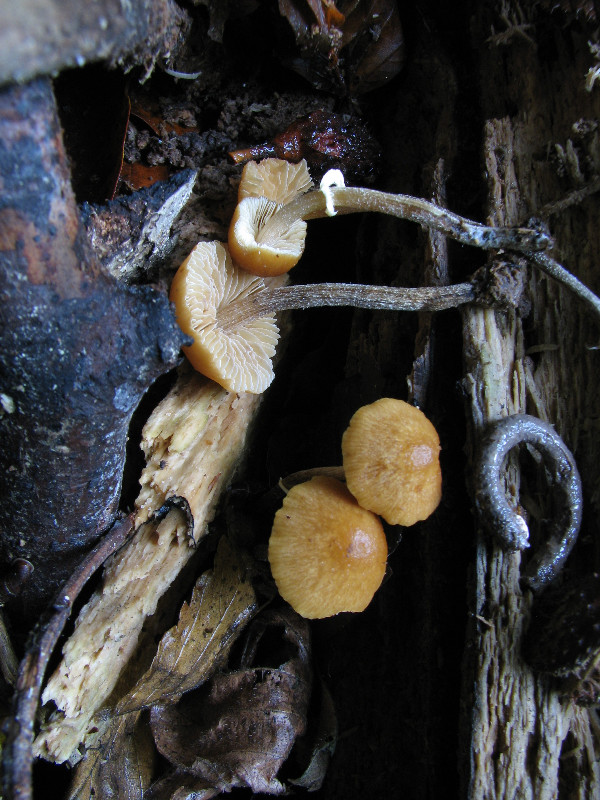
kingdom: Fungi
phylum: Basidiomycota
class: Agaricomycetes
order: Agaricales
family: Bolbitiaceae
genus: Conocybe
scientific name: Conocybe utricystidiata
